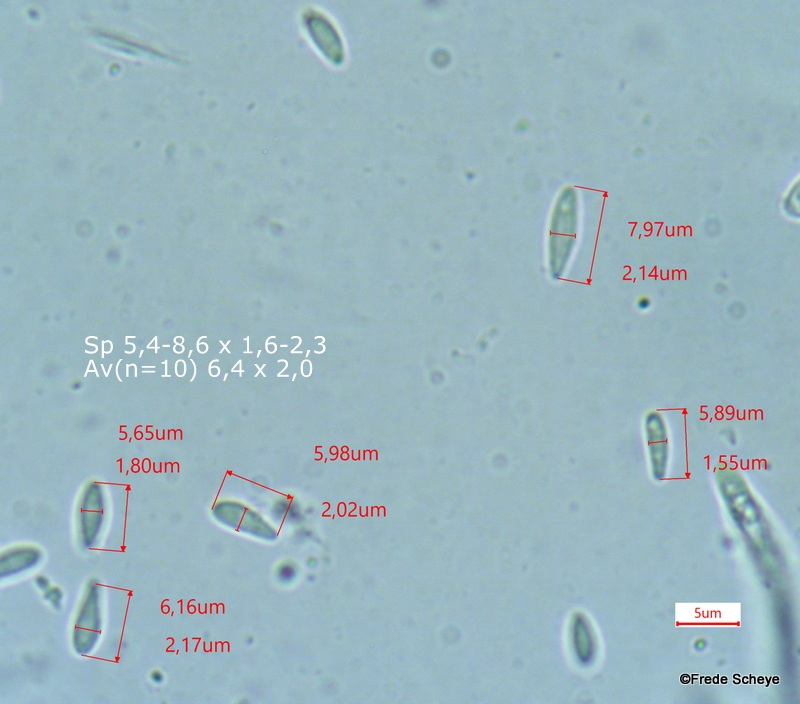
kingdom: Fungi
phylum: Ascomycota
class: Leotiomycetes
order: Helotiales
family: Lachnaceae
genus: Lachnum
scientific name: Lachnum impudicum
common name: vinter-frynseskive
